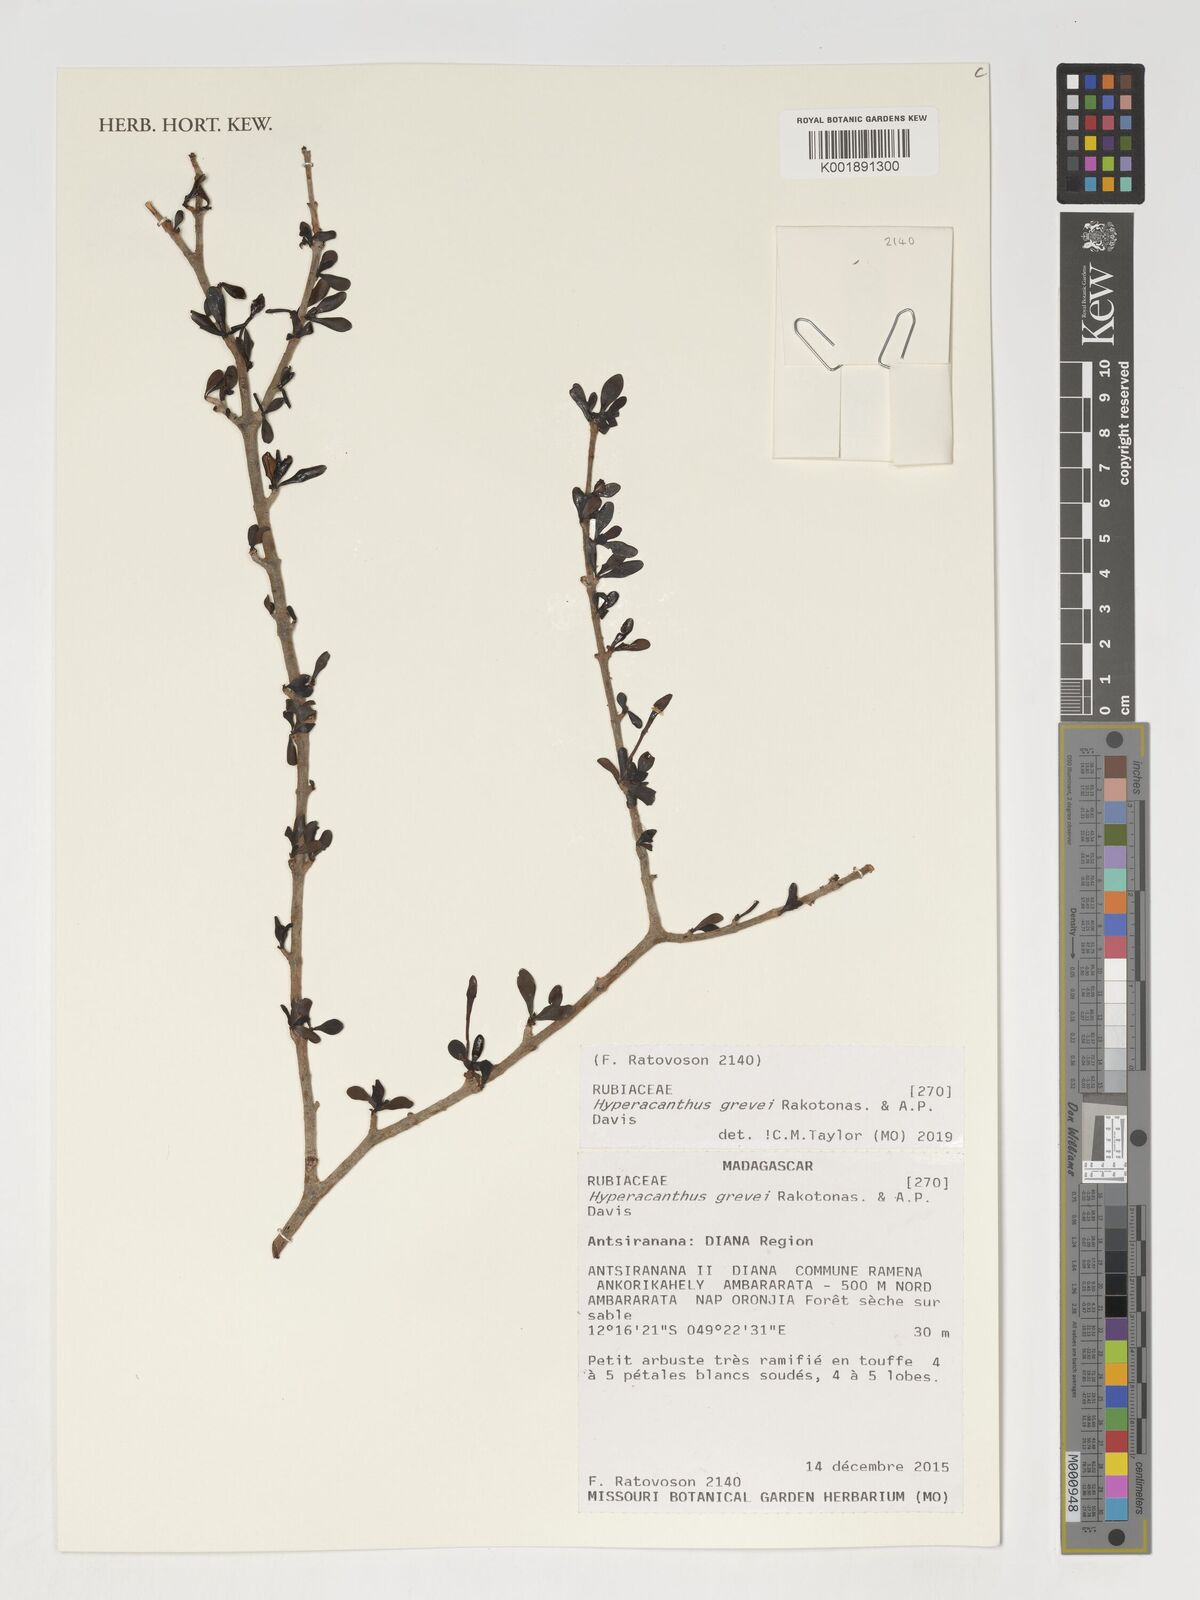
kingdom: Plantae
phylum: Tracheophyta
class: Magnoliopsida
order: Gentianales
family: Rubiaceae
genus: Hyperacanthus
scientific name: Hyperacanthus grevei
